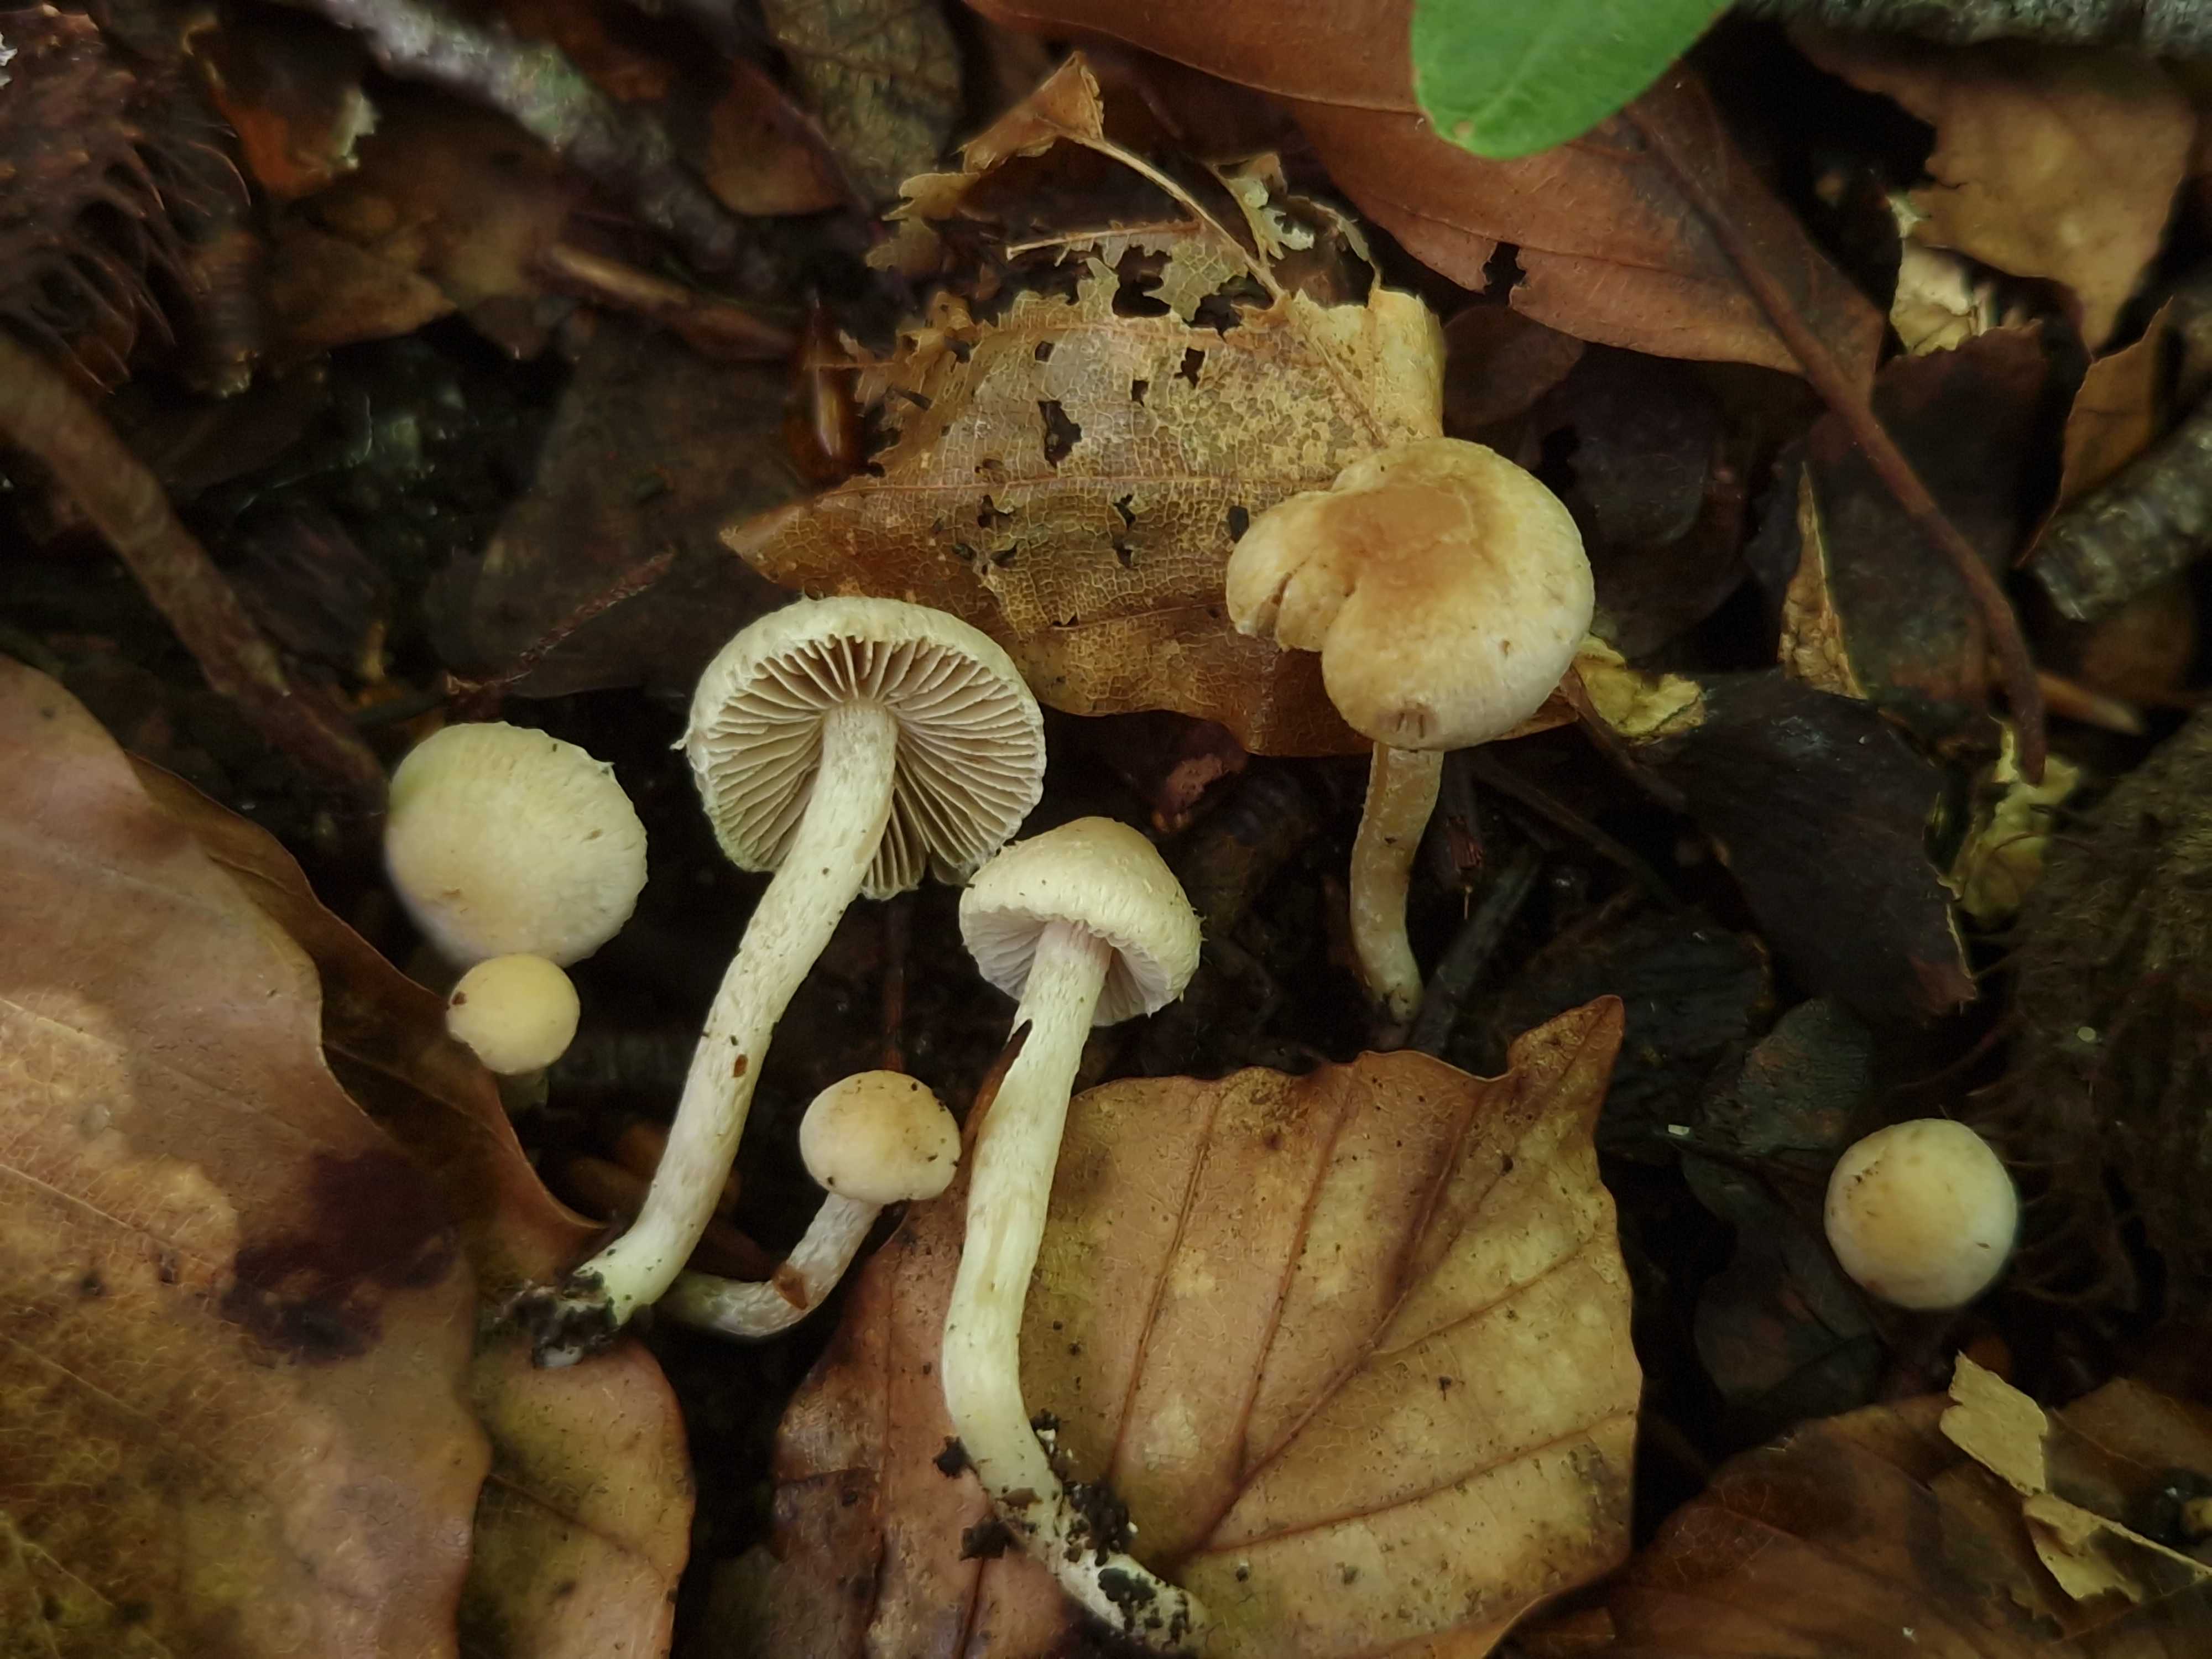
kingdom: Fungi
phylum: Basidiomycota
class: Agaricomycetes
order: Agaricales
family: Inocybaceae
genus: Inocybe
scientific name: Inocybe phaeodisca
